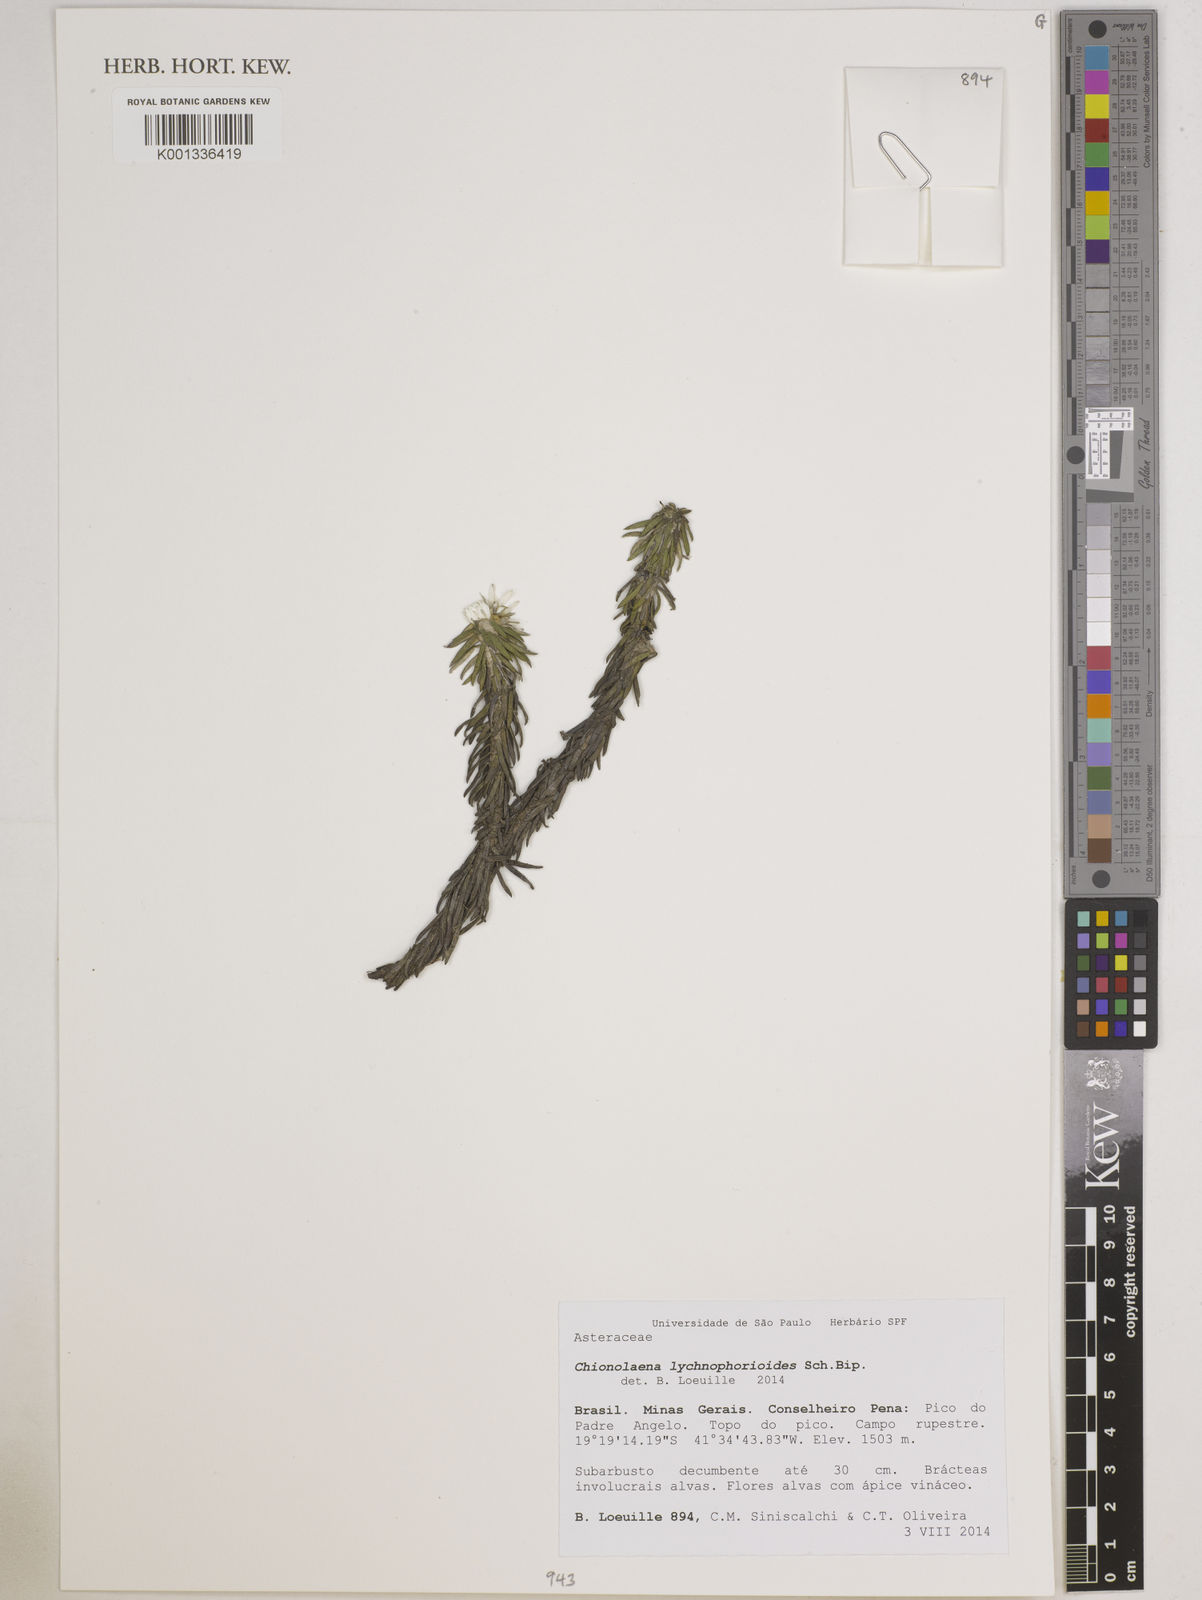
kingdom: Plantae
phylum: Tracheophyta
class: Magnoliopsida
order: Asterales
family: Asteraceae
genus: Chionolaena
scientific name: Chionolaena lychnophorioides
